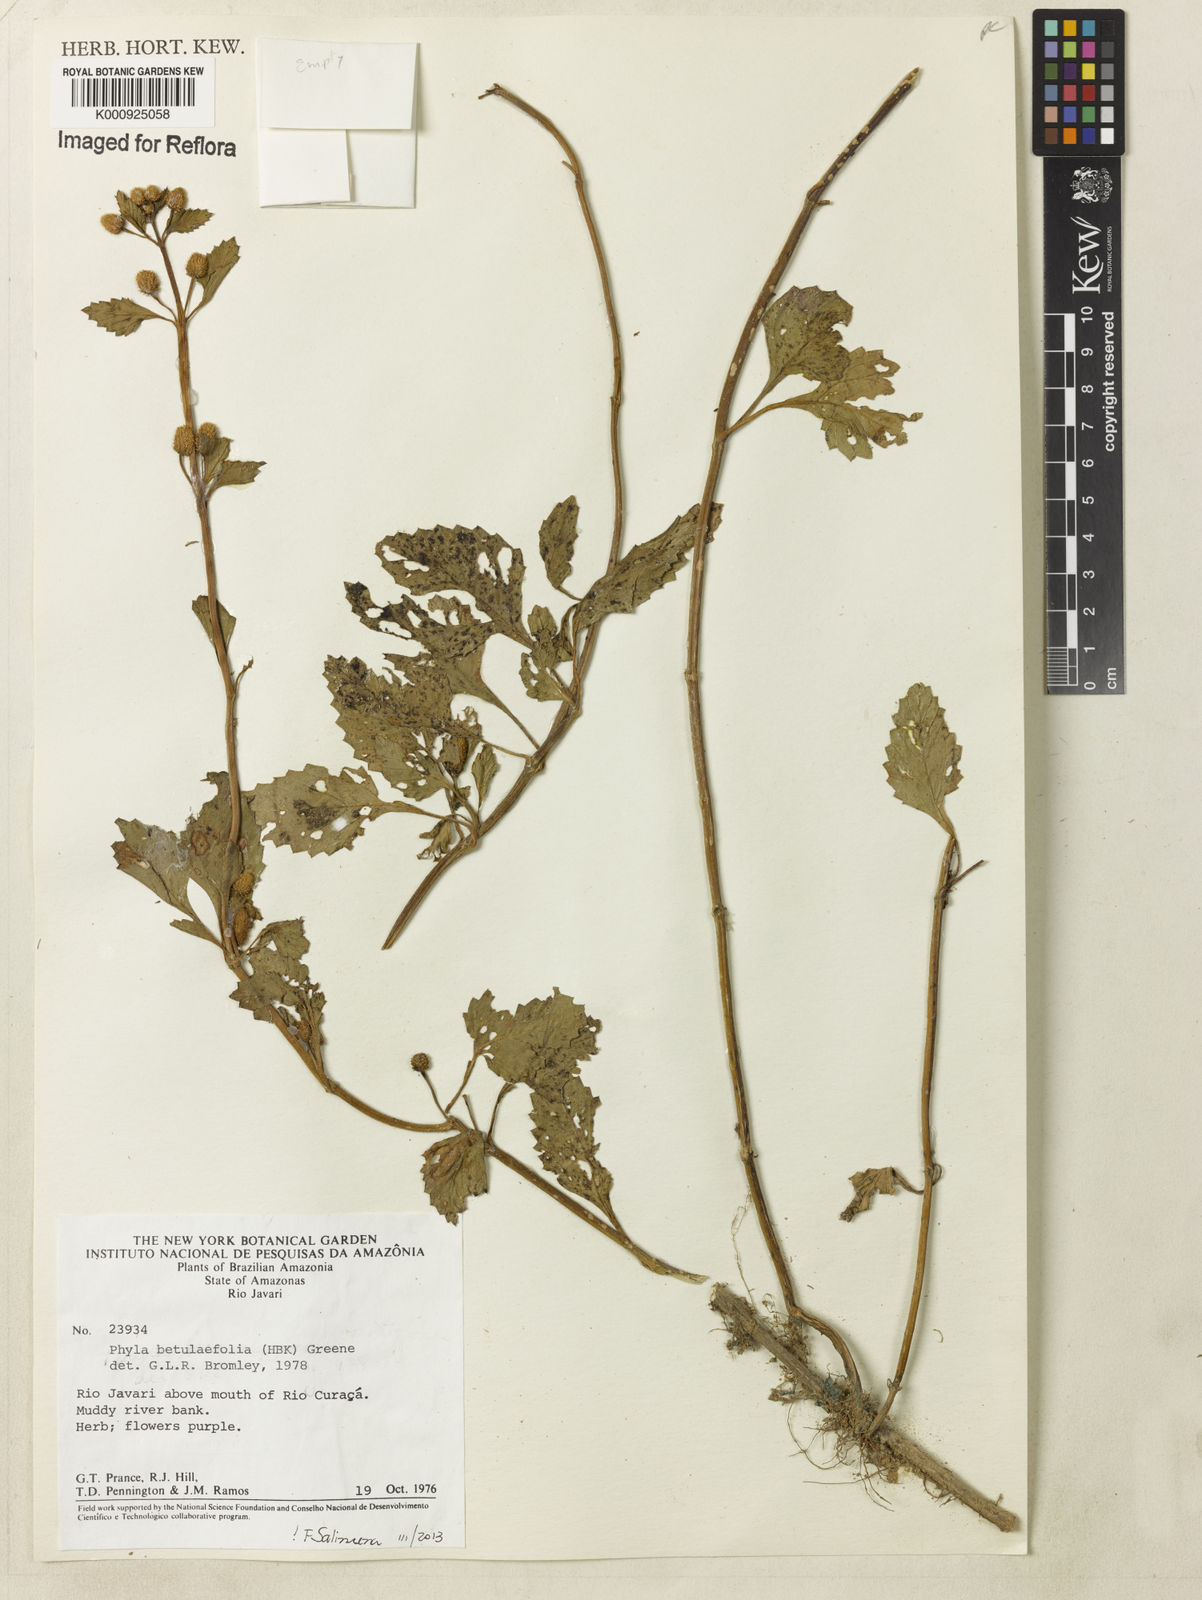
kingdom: Plantae
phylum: Tracheophyta
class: Magnoliopsida
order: Lamiales
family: Verbenaceae
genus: Phyla
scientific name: Phyla betulifolia
